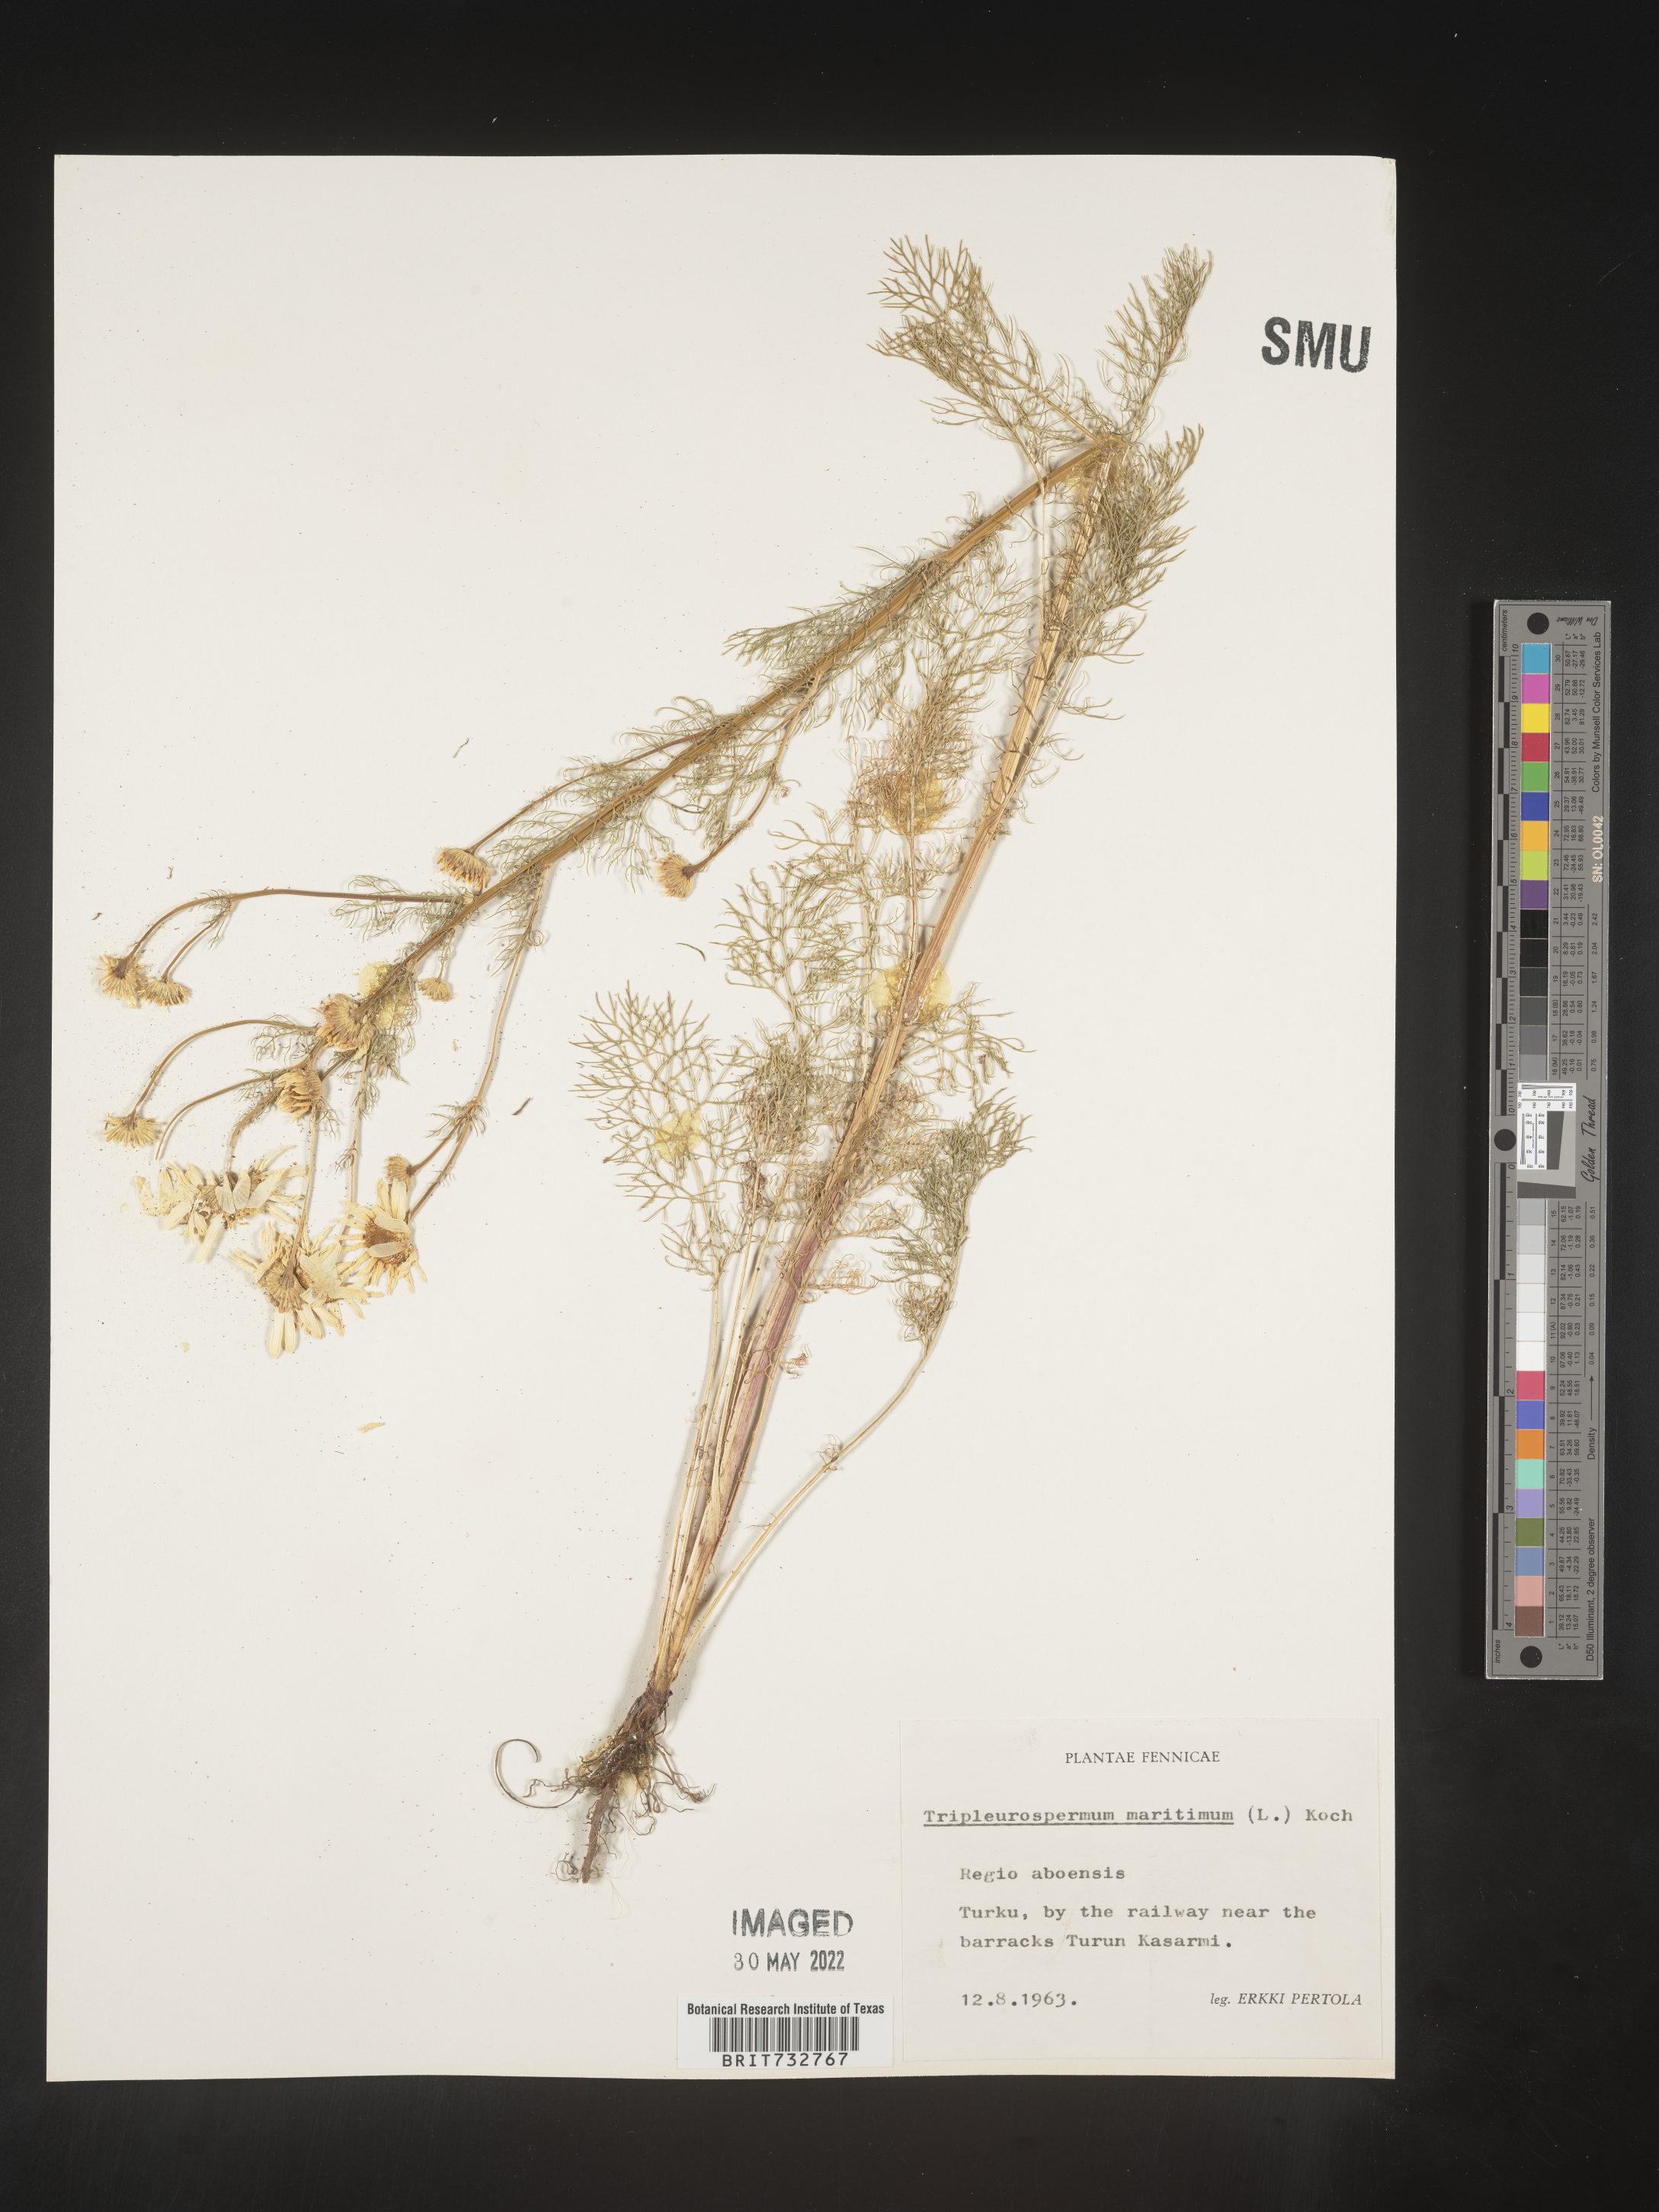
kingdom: Plantae
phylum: Tracheophyta
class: Magnoliopsida
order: Asterales
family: Asteraceae
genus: Matricaria
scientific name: Matricaria
